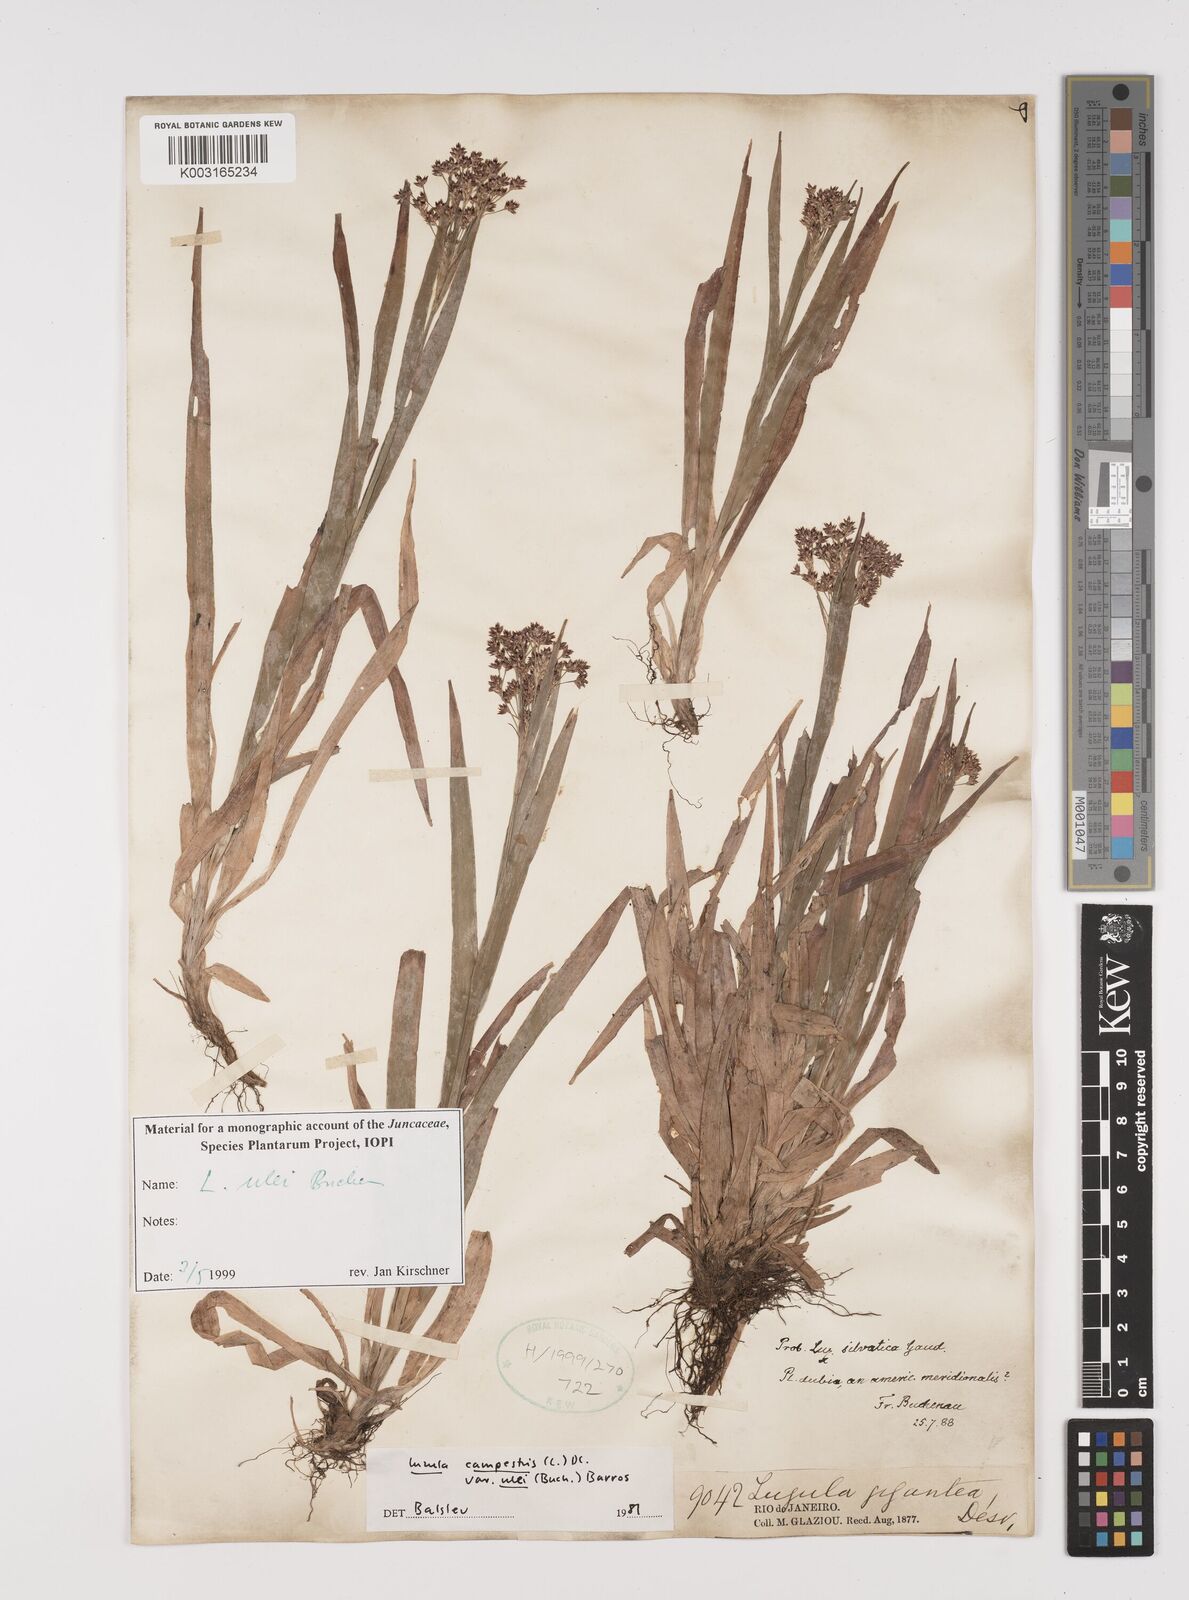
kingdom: Plantae
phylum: Tracheophyta
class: Liliopsida
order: Poales
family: Juncaceae
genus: Luzula
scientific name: Luzula ulei
